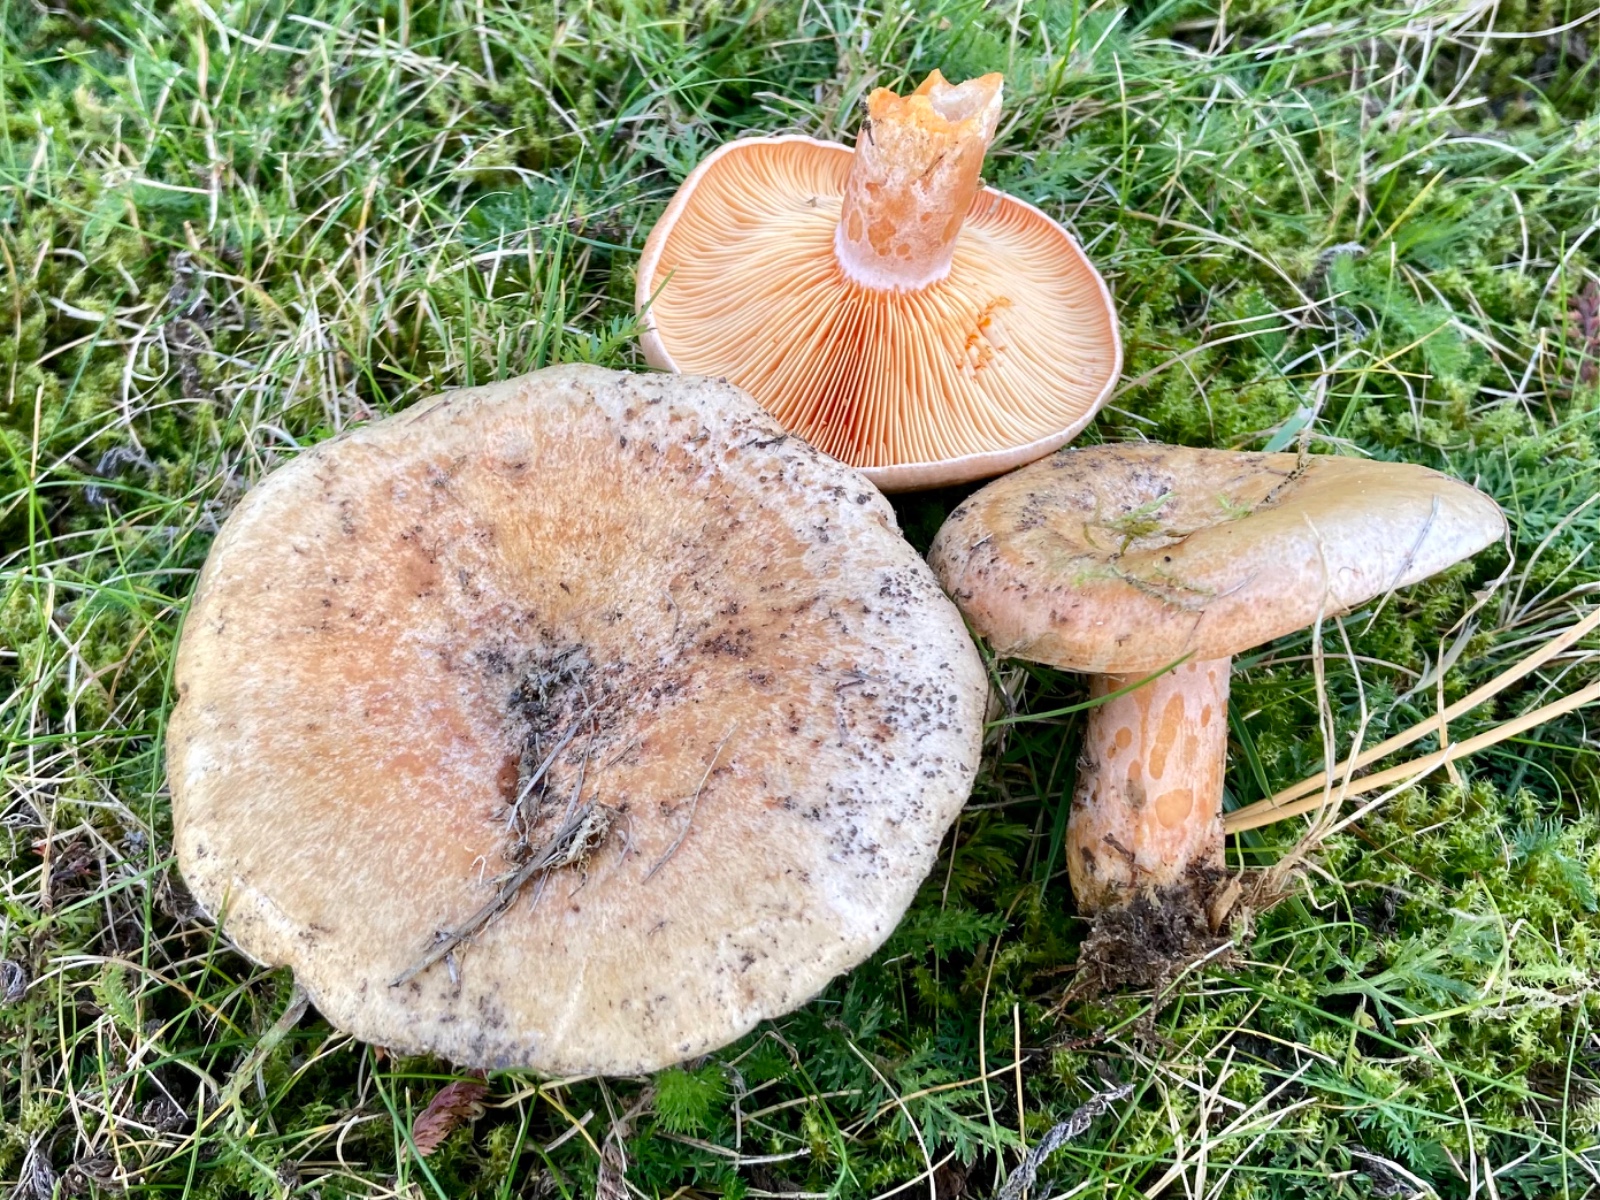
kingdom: Fungi
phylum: Basidiomycota
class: Agaricomycetes
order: Russulales
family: Russulaceae
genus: Lactarius
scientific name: Lactarius deliciosus
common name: velsmagende mælkehat
